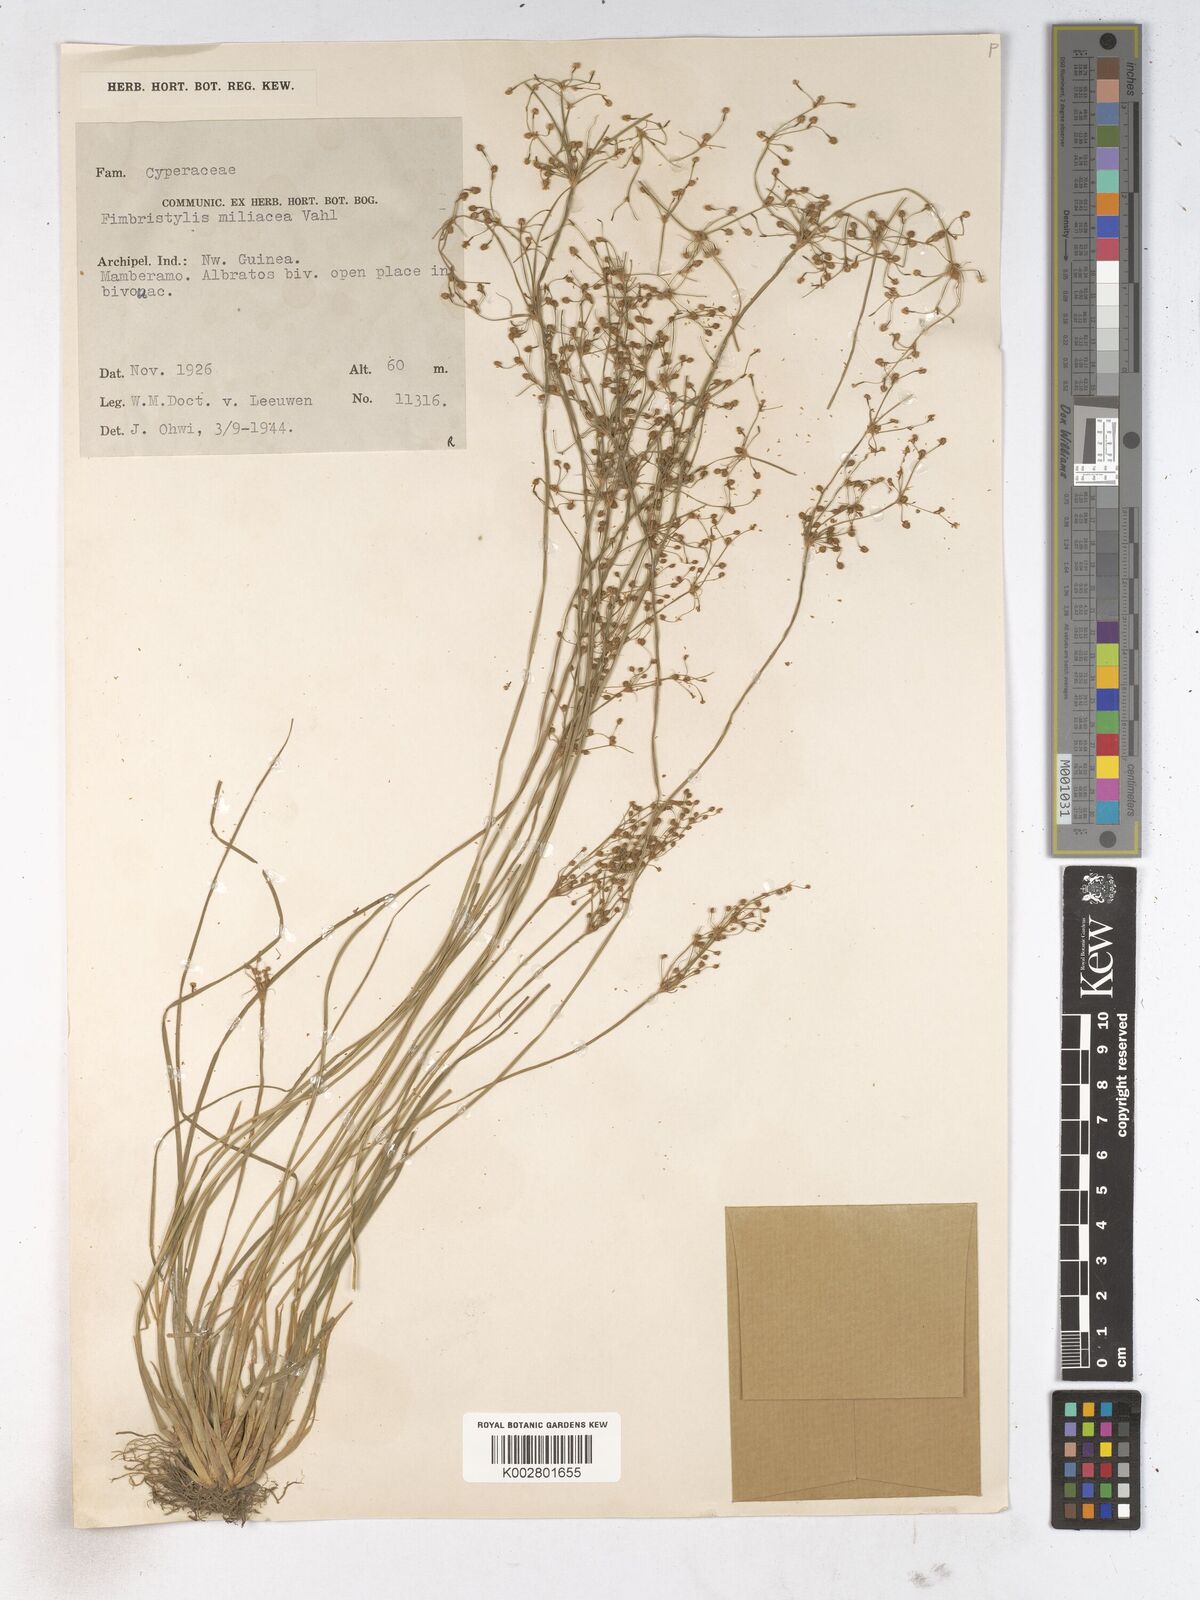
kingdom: Plantae
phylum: Tracheophyta
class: Liliopsida
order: Poales
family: Cyperaceae
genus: Fimbristylis
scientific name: Fimbristylis littoralis
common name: Fimbry
